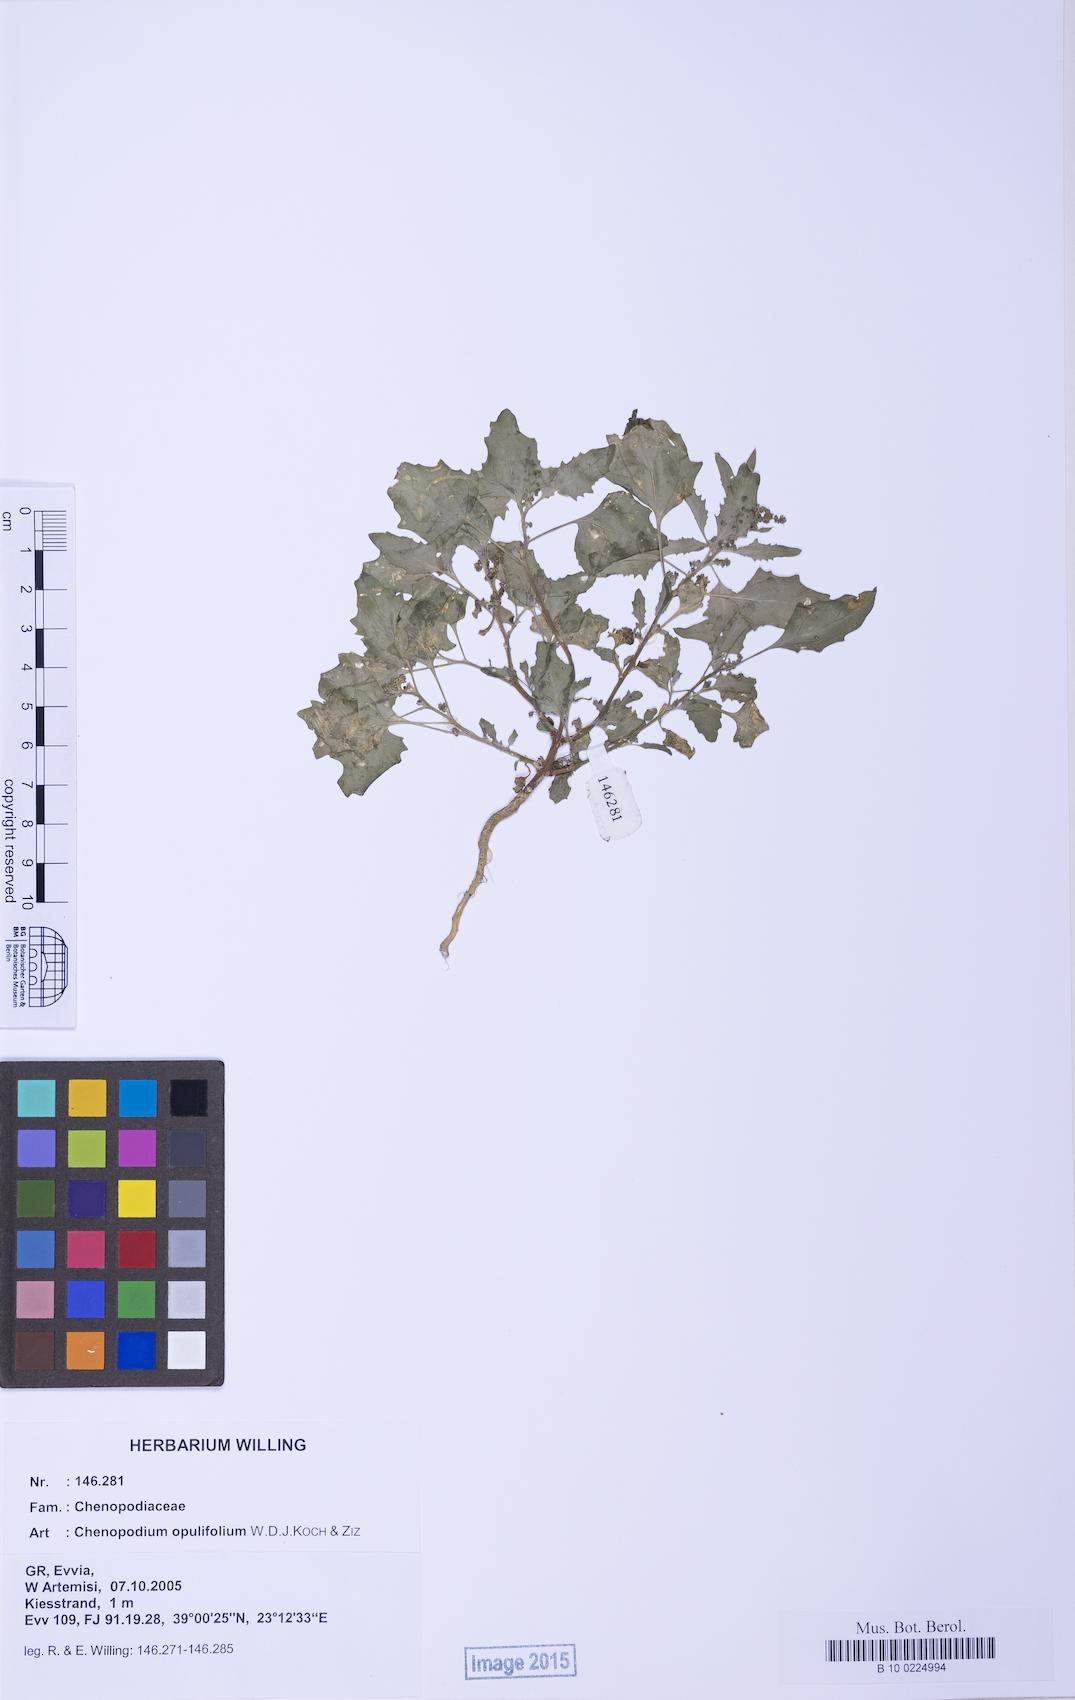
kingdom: Plantae
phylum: Tracheophyta
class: Magnoliopsida
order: Caryophyllales
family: Amaranthaceae
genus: Chenopodiastrum
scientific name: Chenopodiastrum murale
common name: Sowbane
